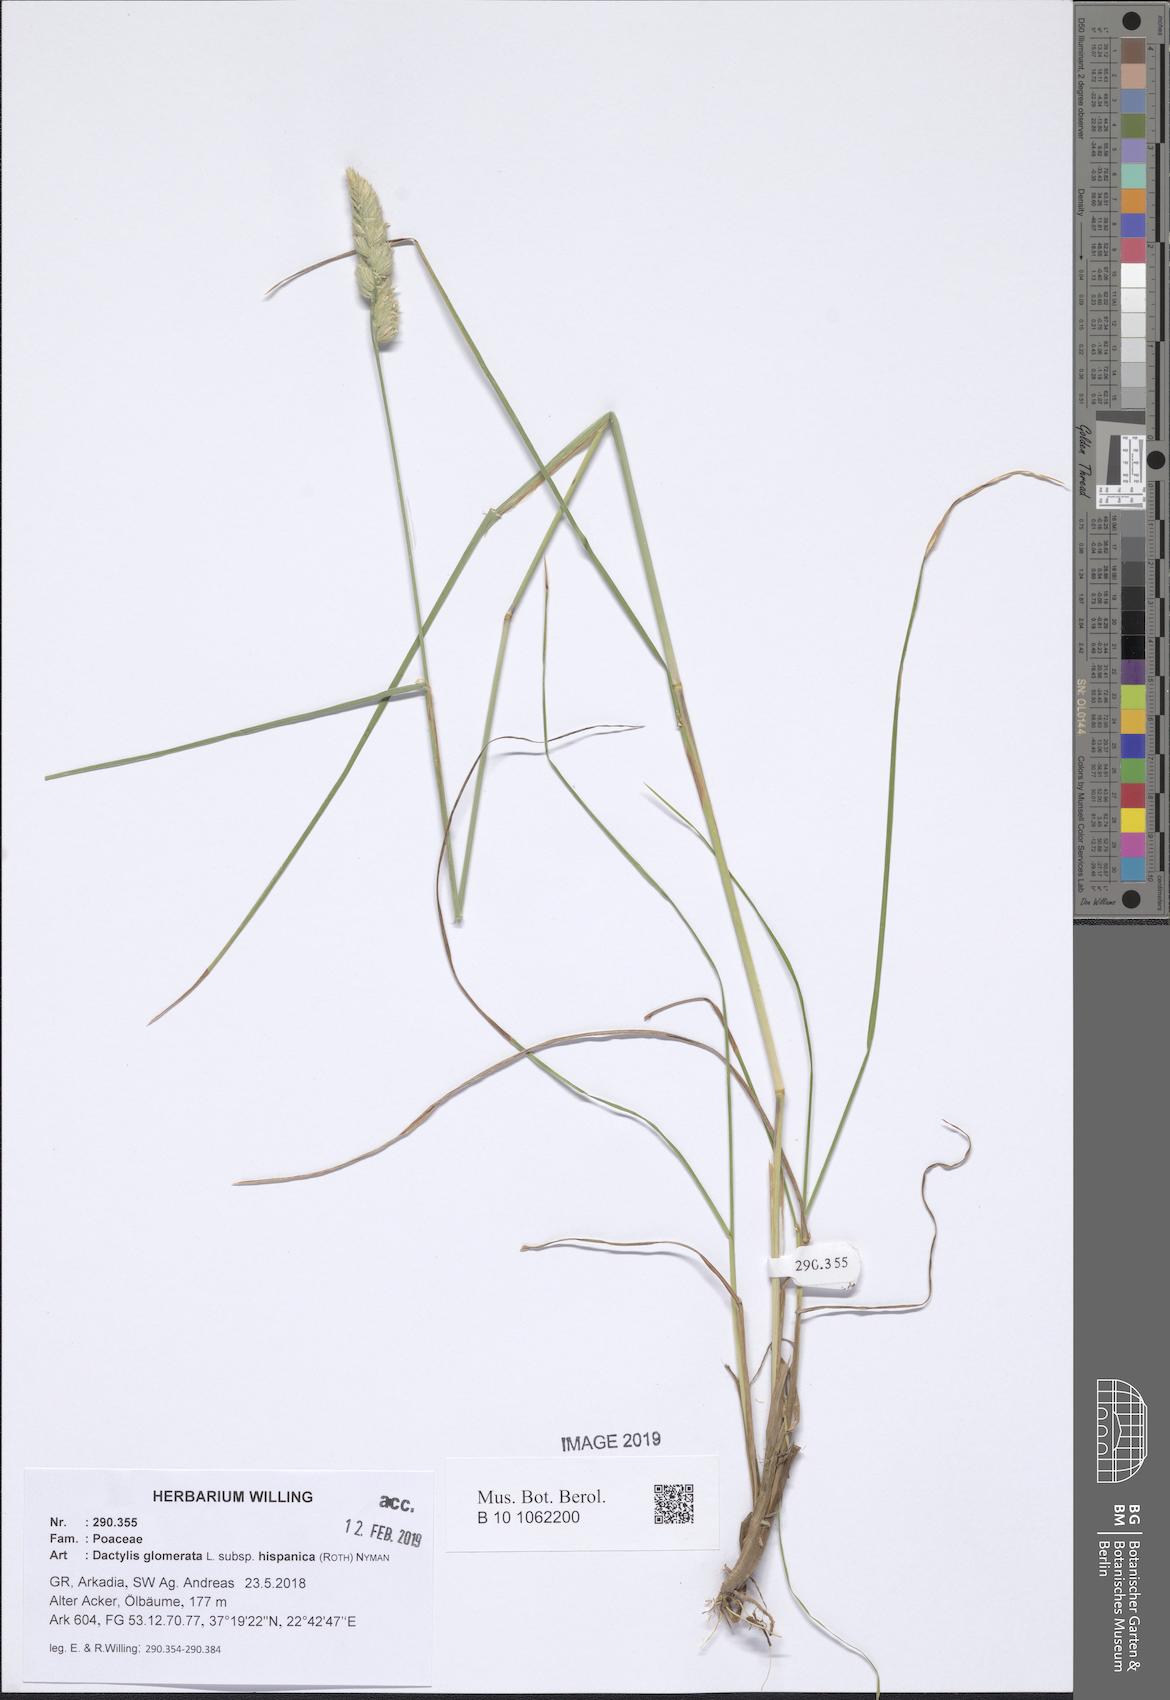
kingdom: Plantae
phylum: Tracheophyta
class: Liliopsida
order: Poales
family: Poaceae
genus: Dactylis
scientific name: Dactylis glomerata
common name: Orchardgrass
